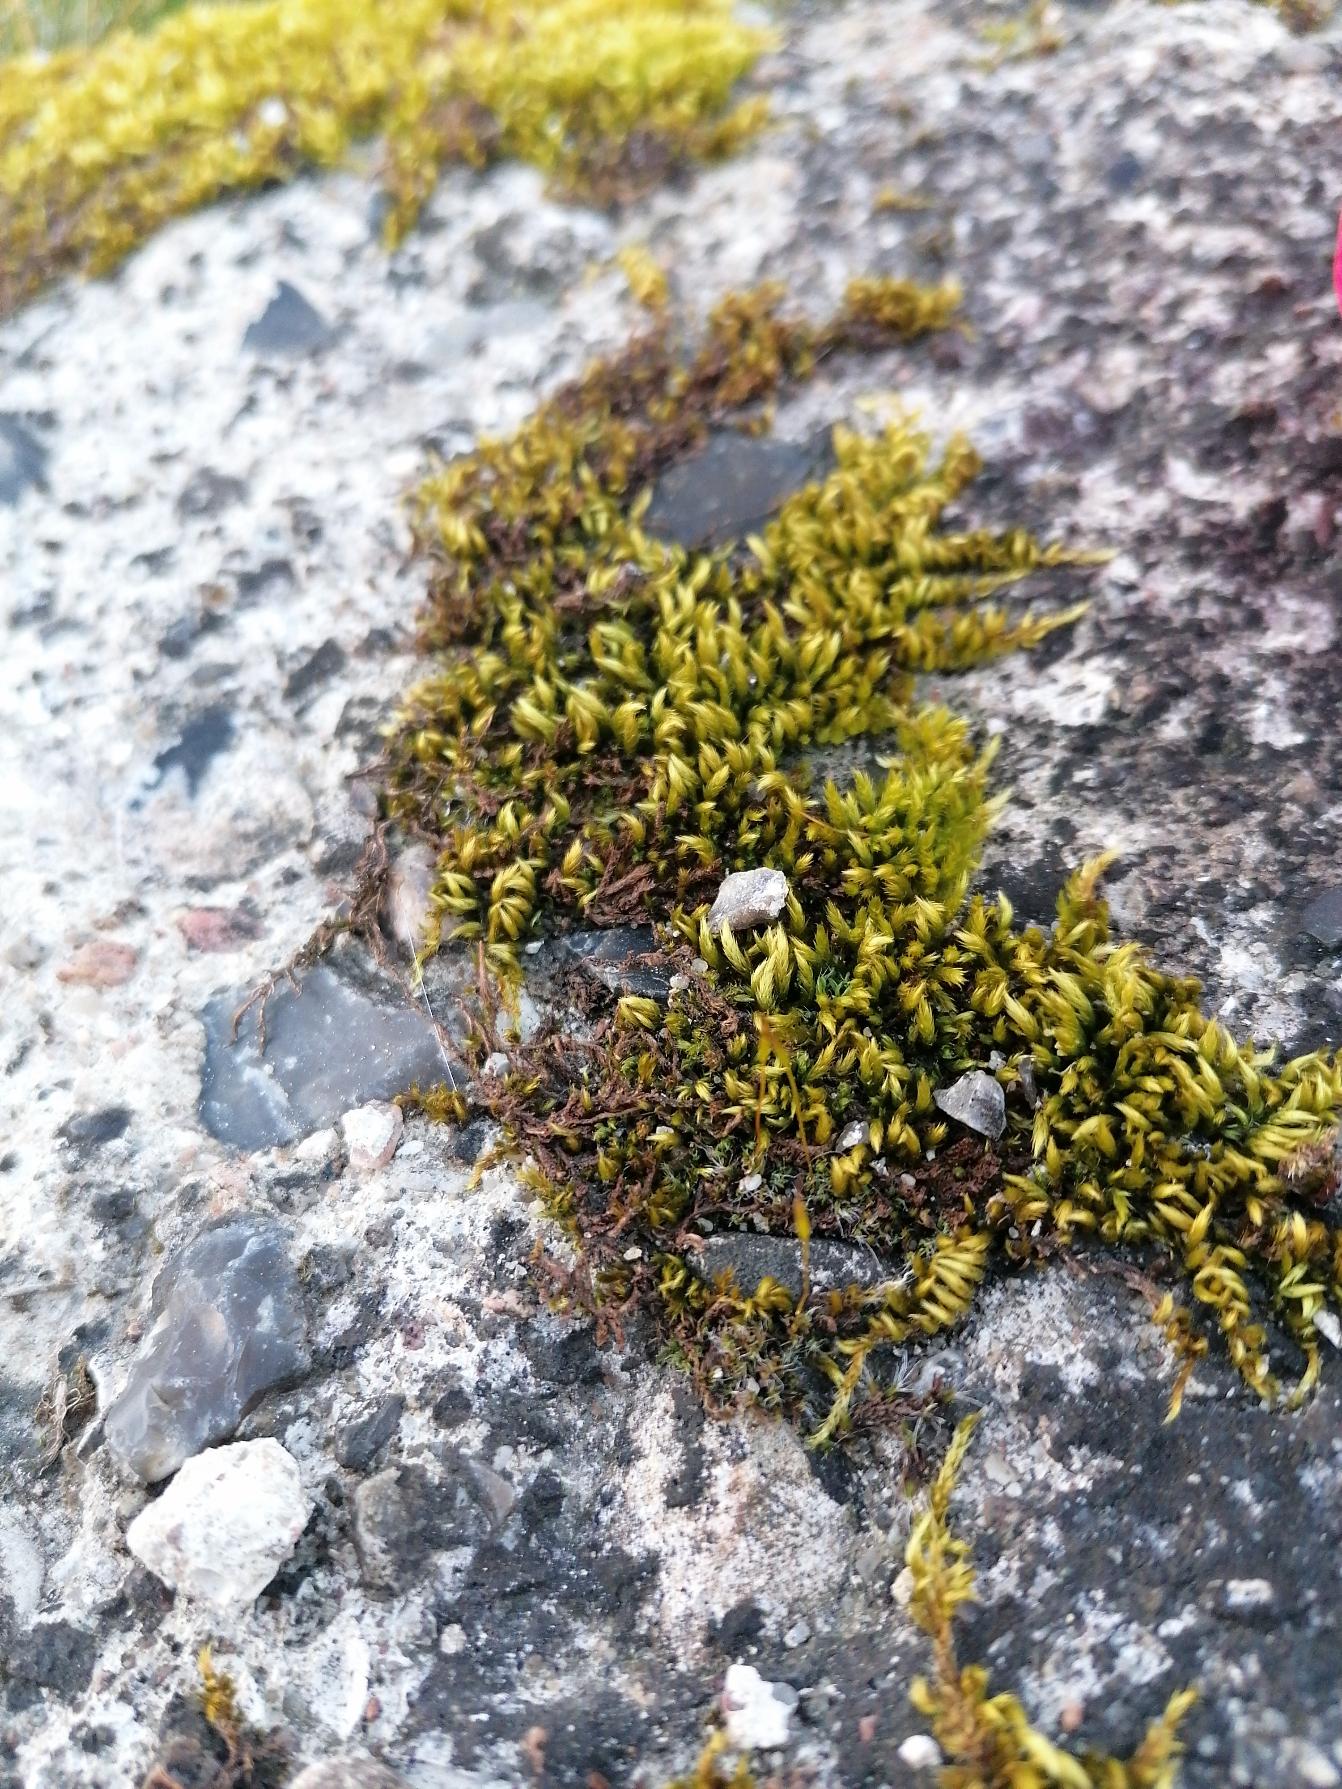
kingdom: Plantae
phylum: Bryophyta
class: Bryopsida
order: Hypnales
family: Brachytheciaceae
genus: Homalothecium
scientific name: Homalothecium sericeum
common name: Krybende silkemos
